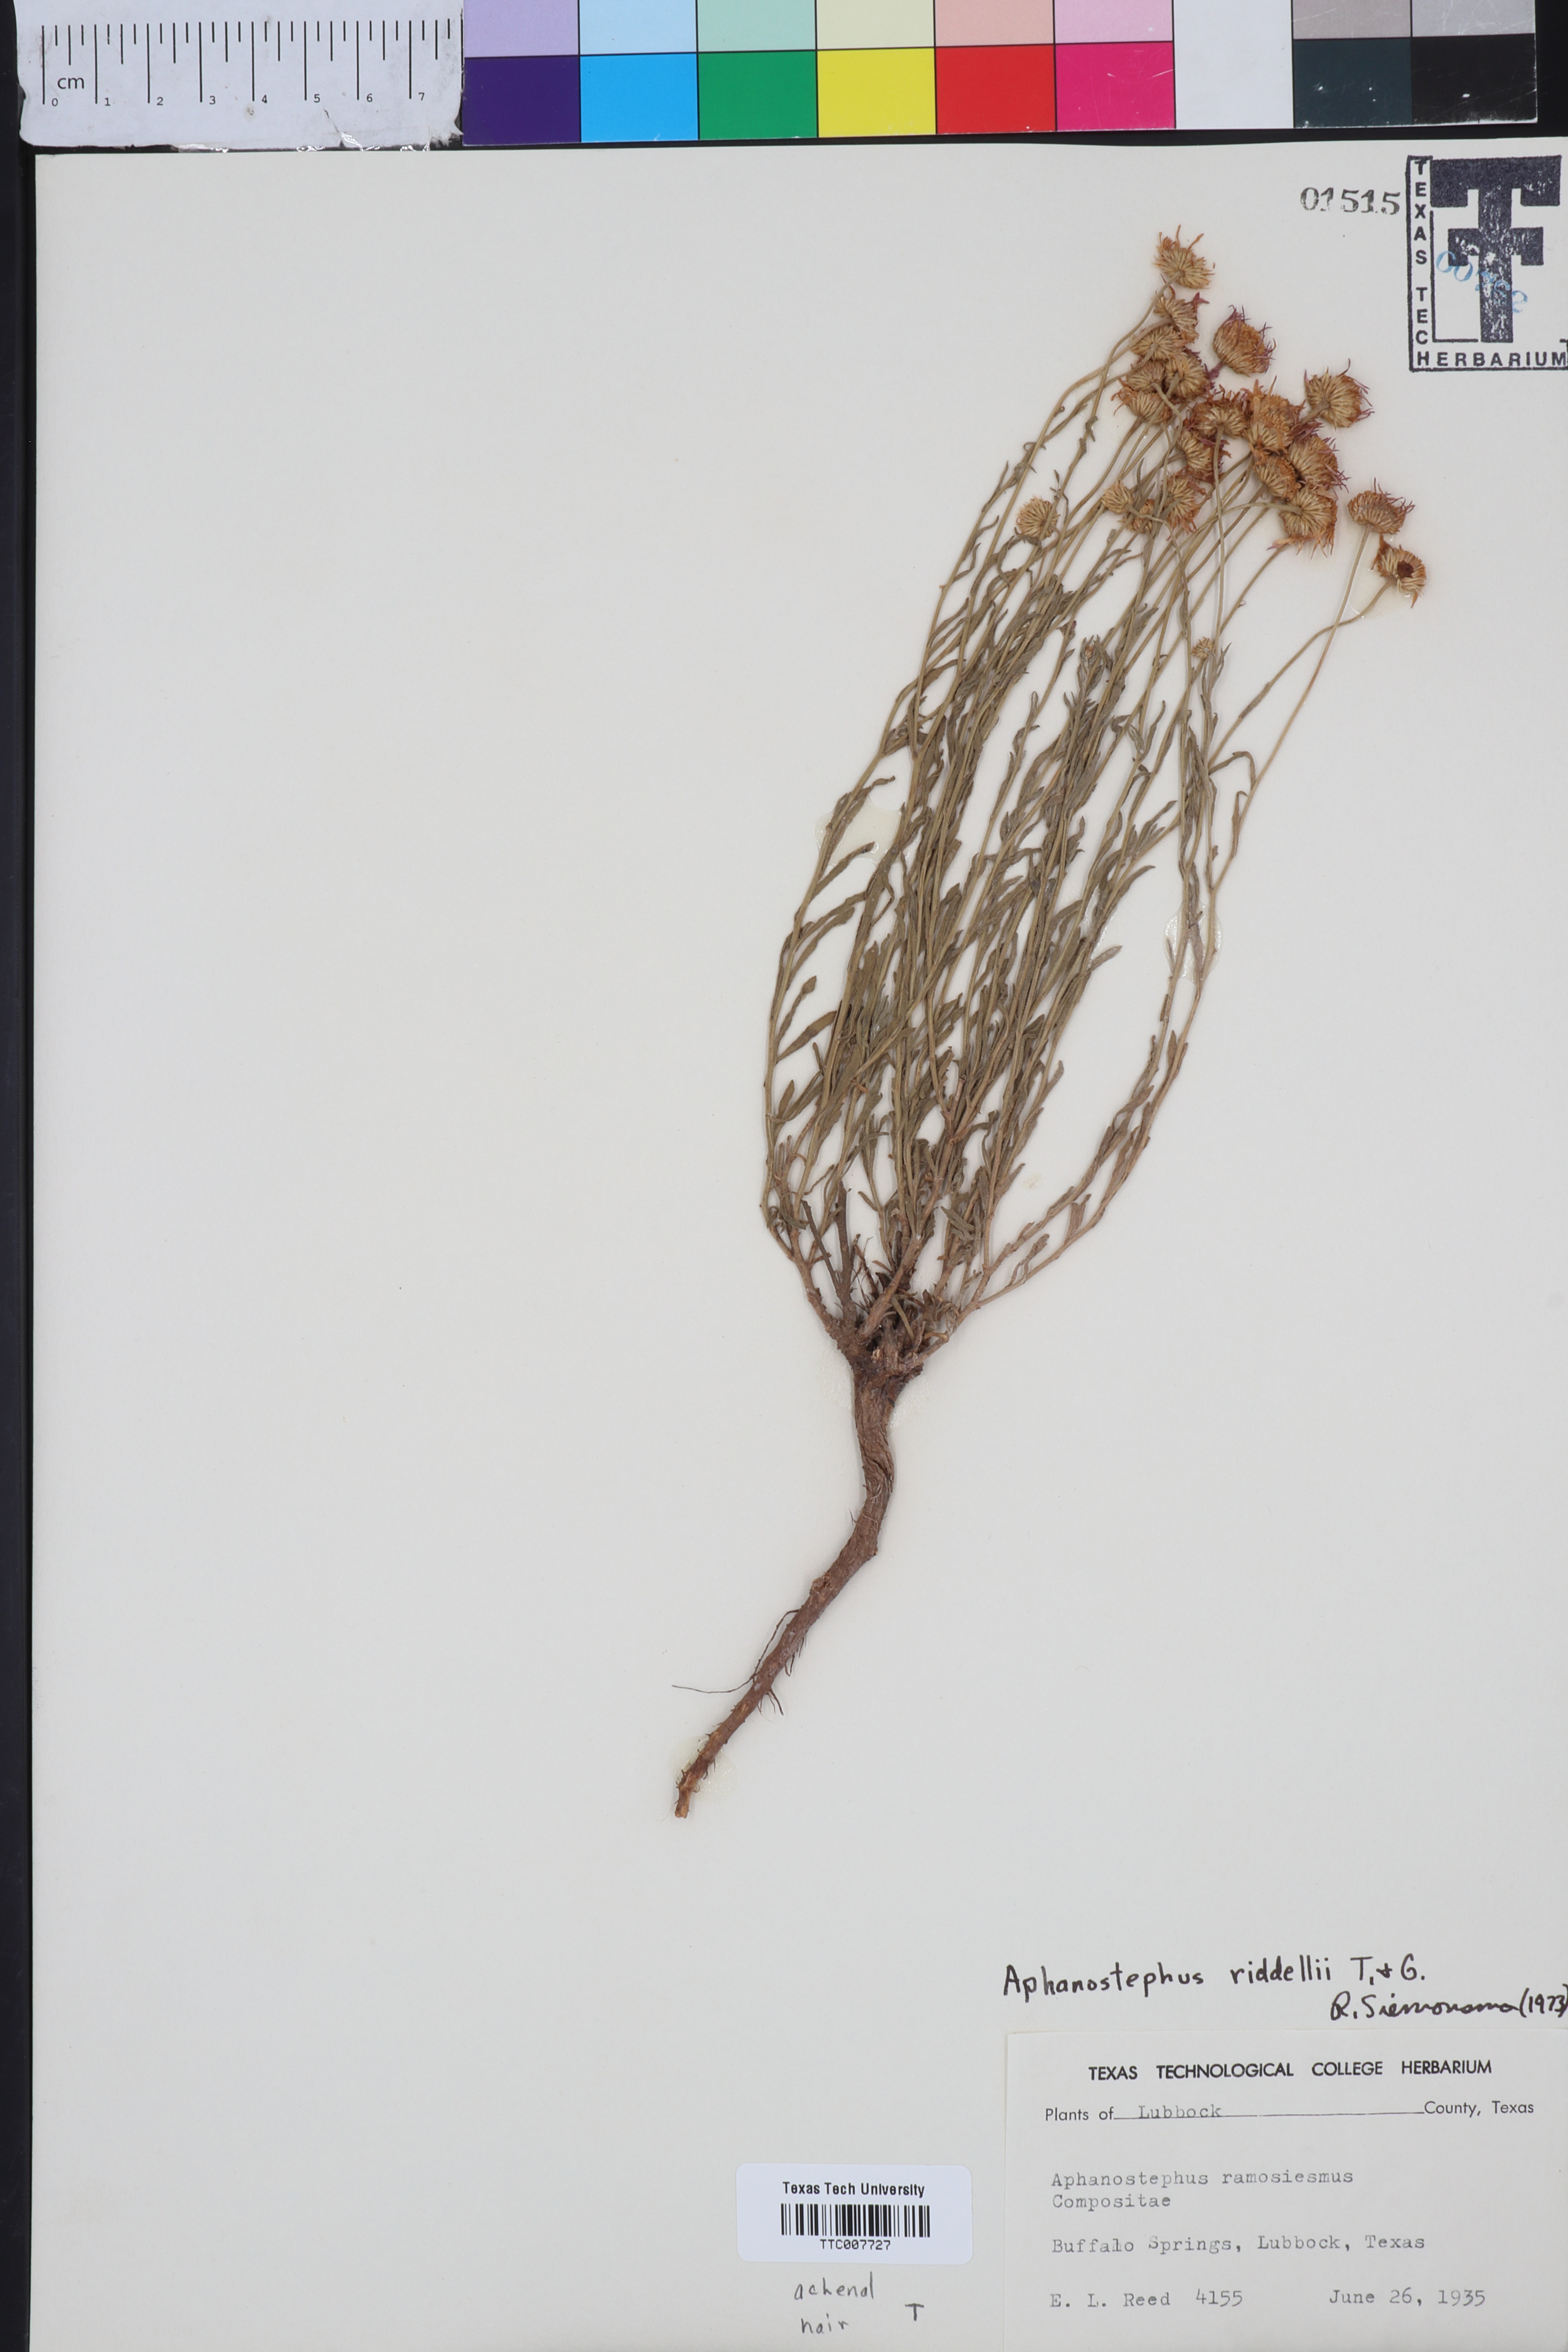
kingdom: Plantae
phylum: Tracheophyta
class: Magnoliopsida
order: Asterales
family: Asteraceae
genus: Aphanostephus
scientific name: Aphanostephus riddellii
